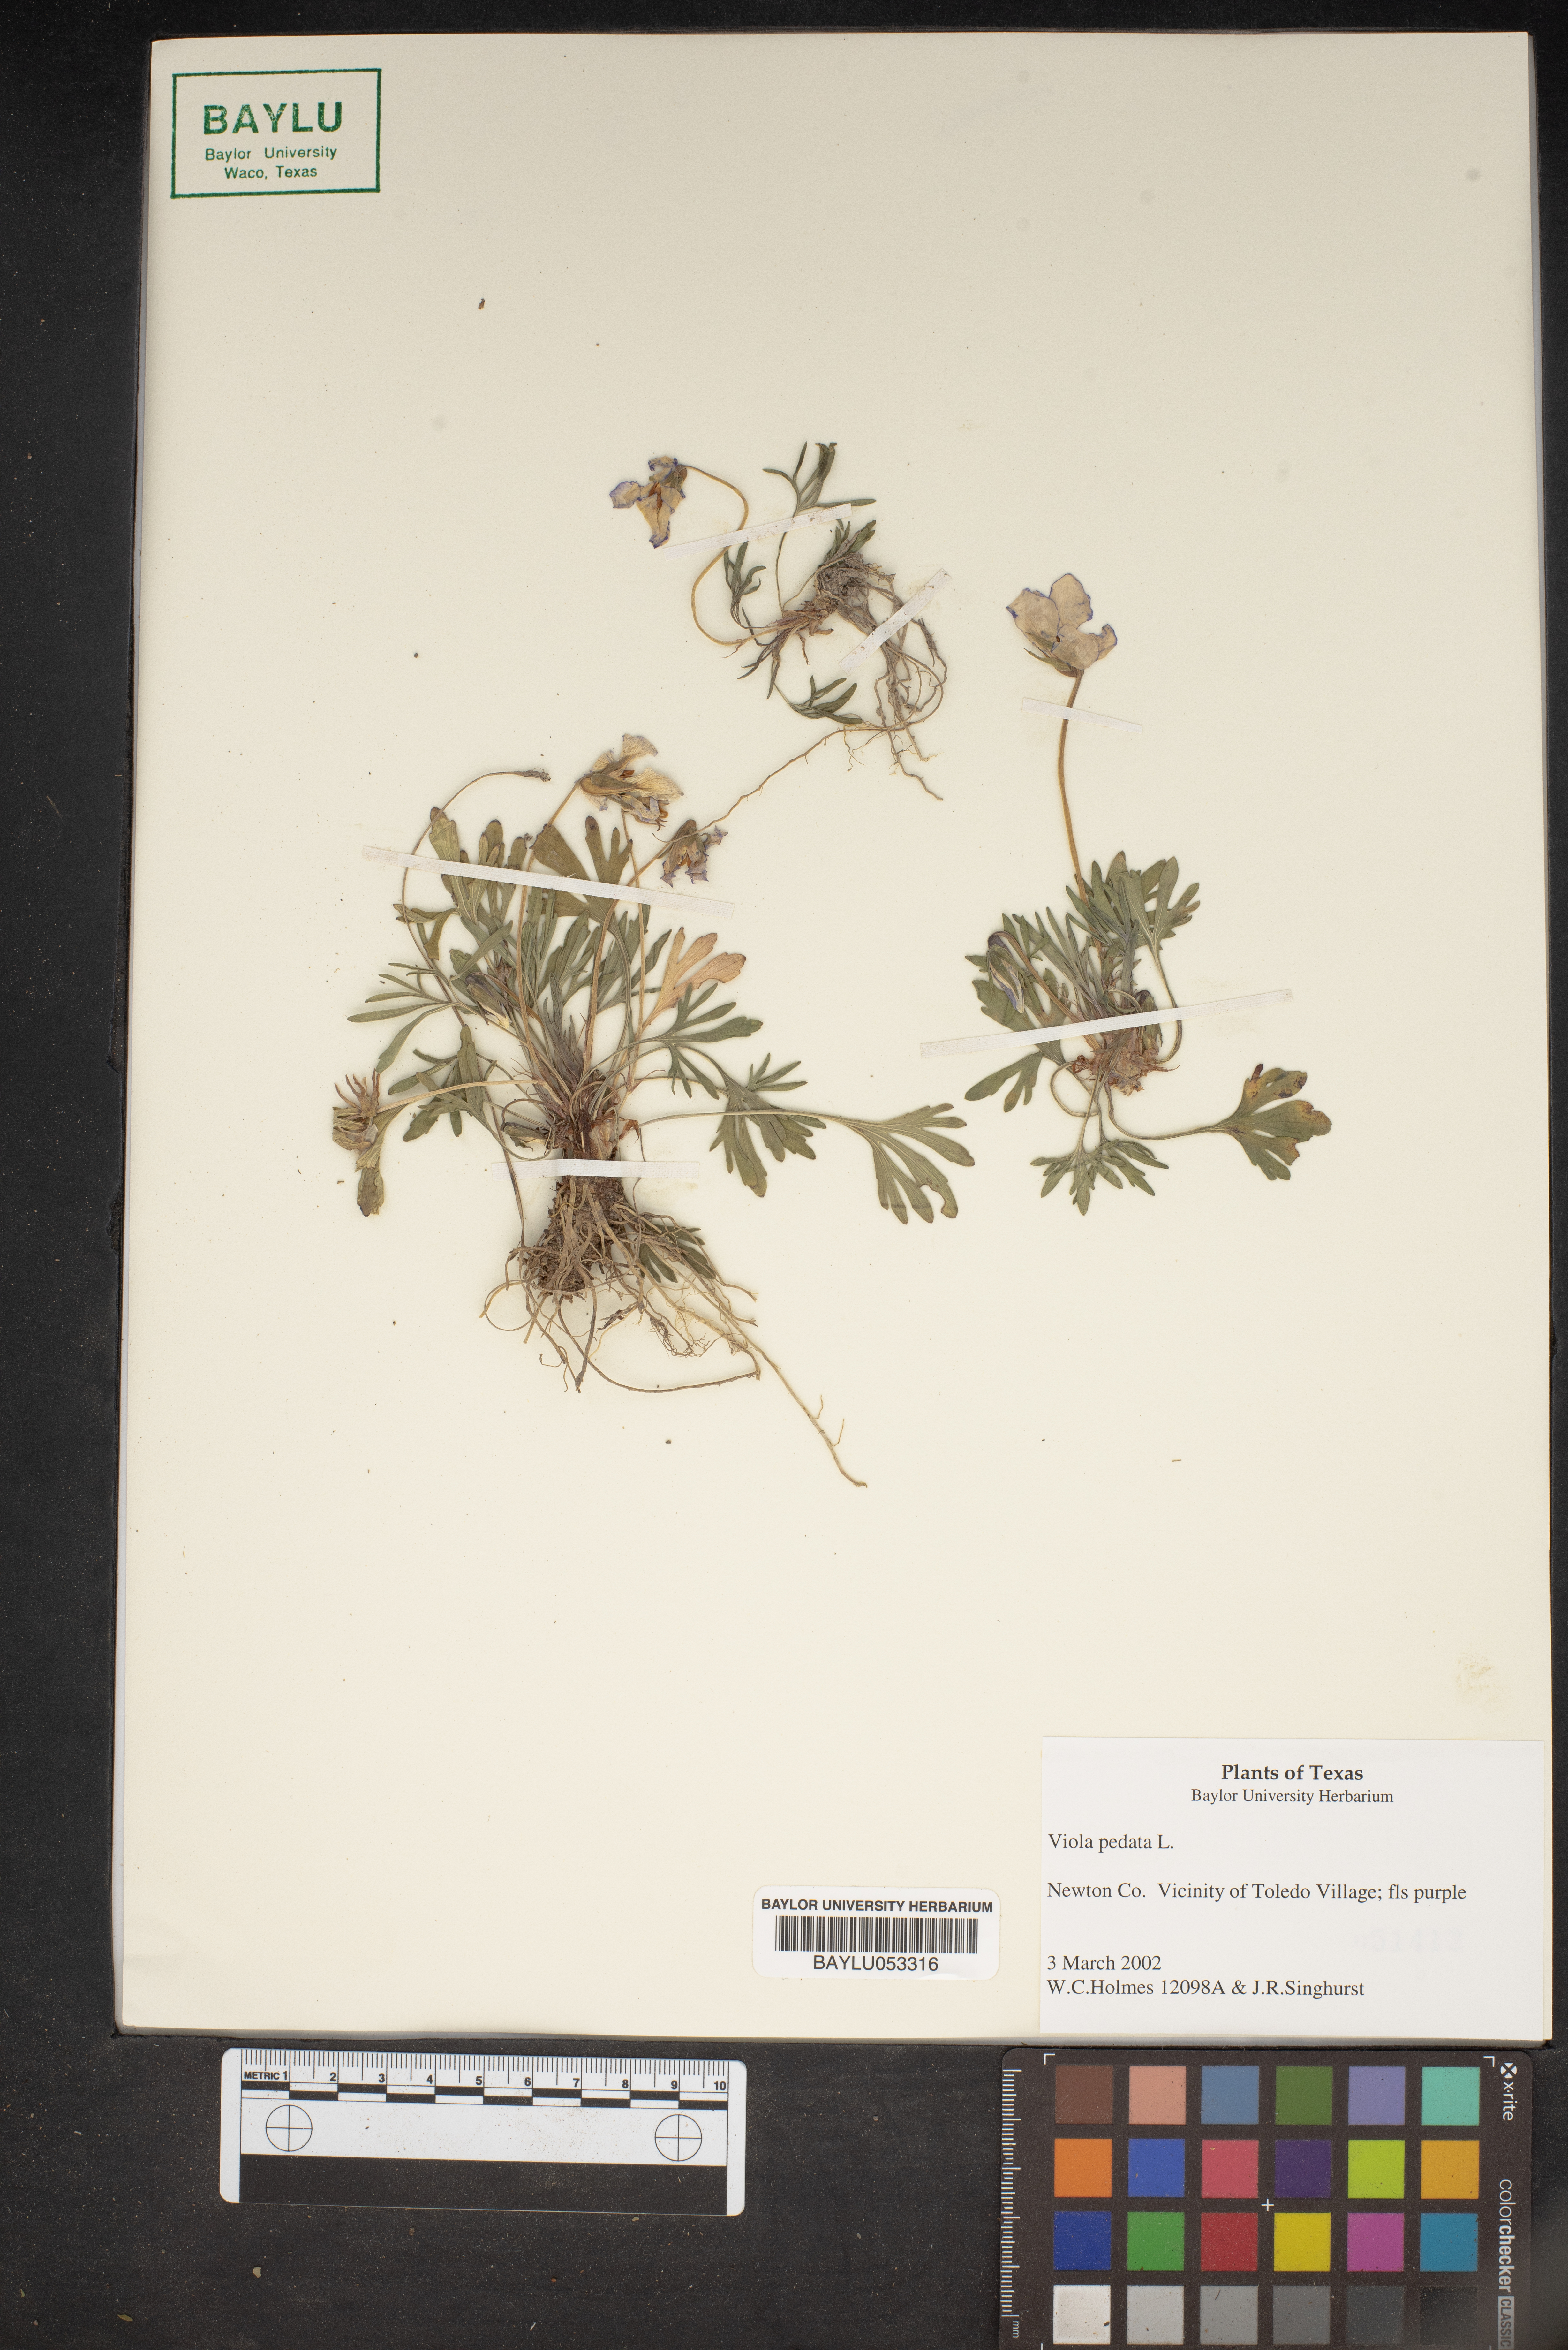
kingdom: Plantae
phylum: Tracheophyta
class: Magnoliopsida
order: Malpighiales
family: Violaceae
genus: Viola
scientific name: Viola pedata
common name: Pansy violet
